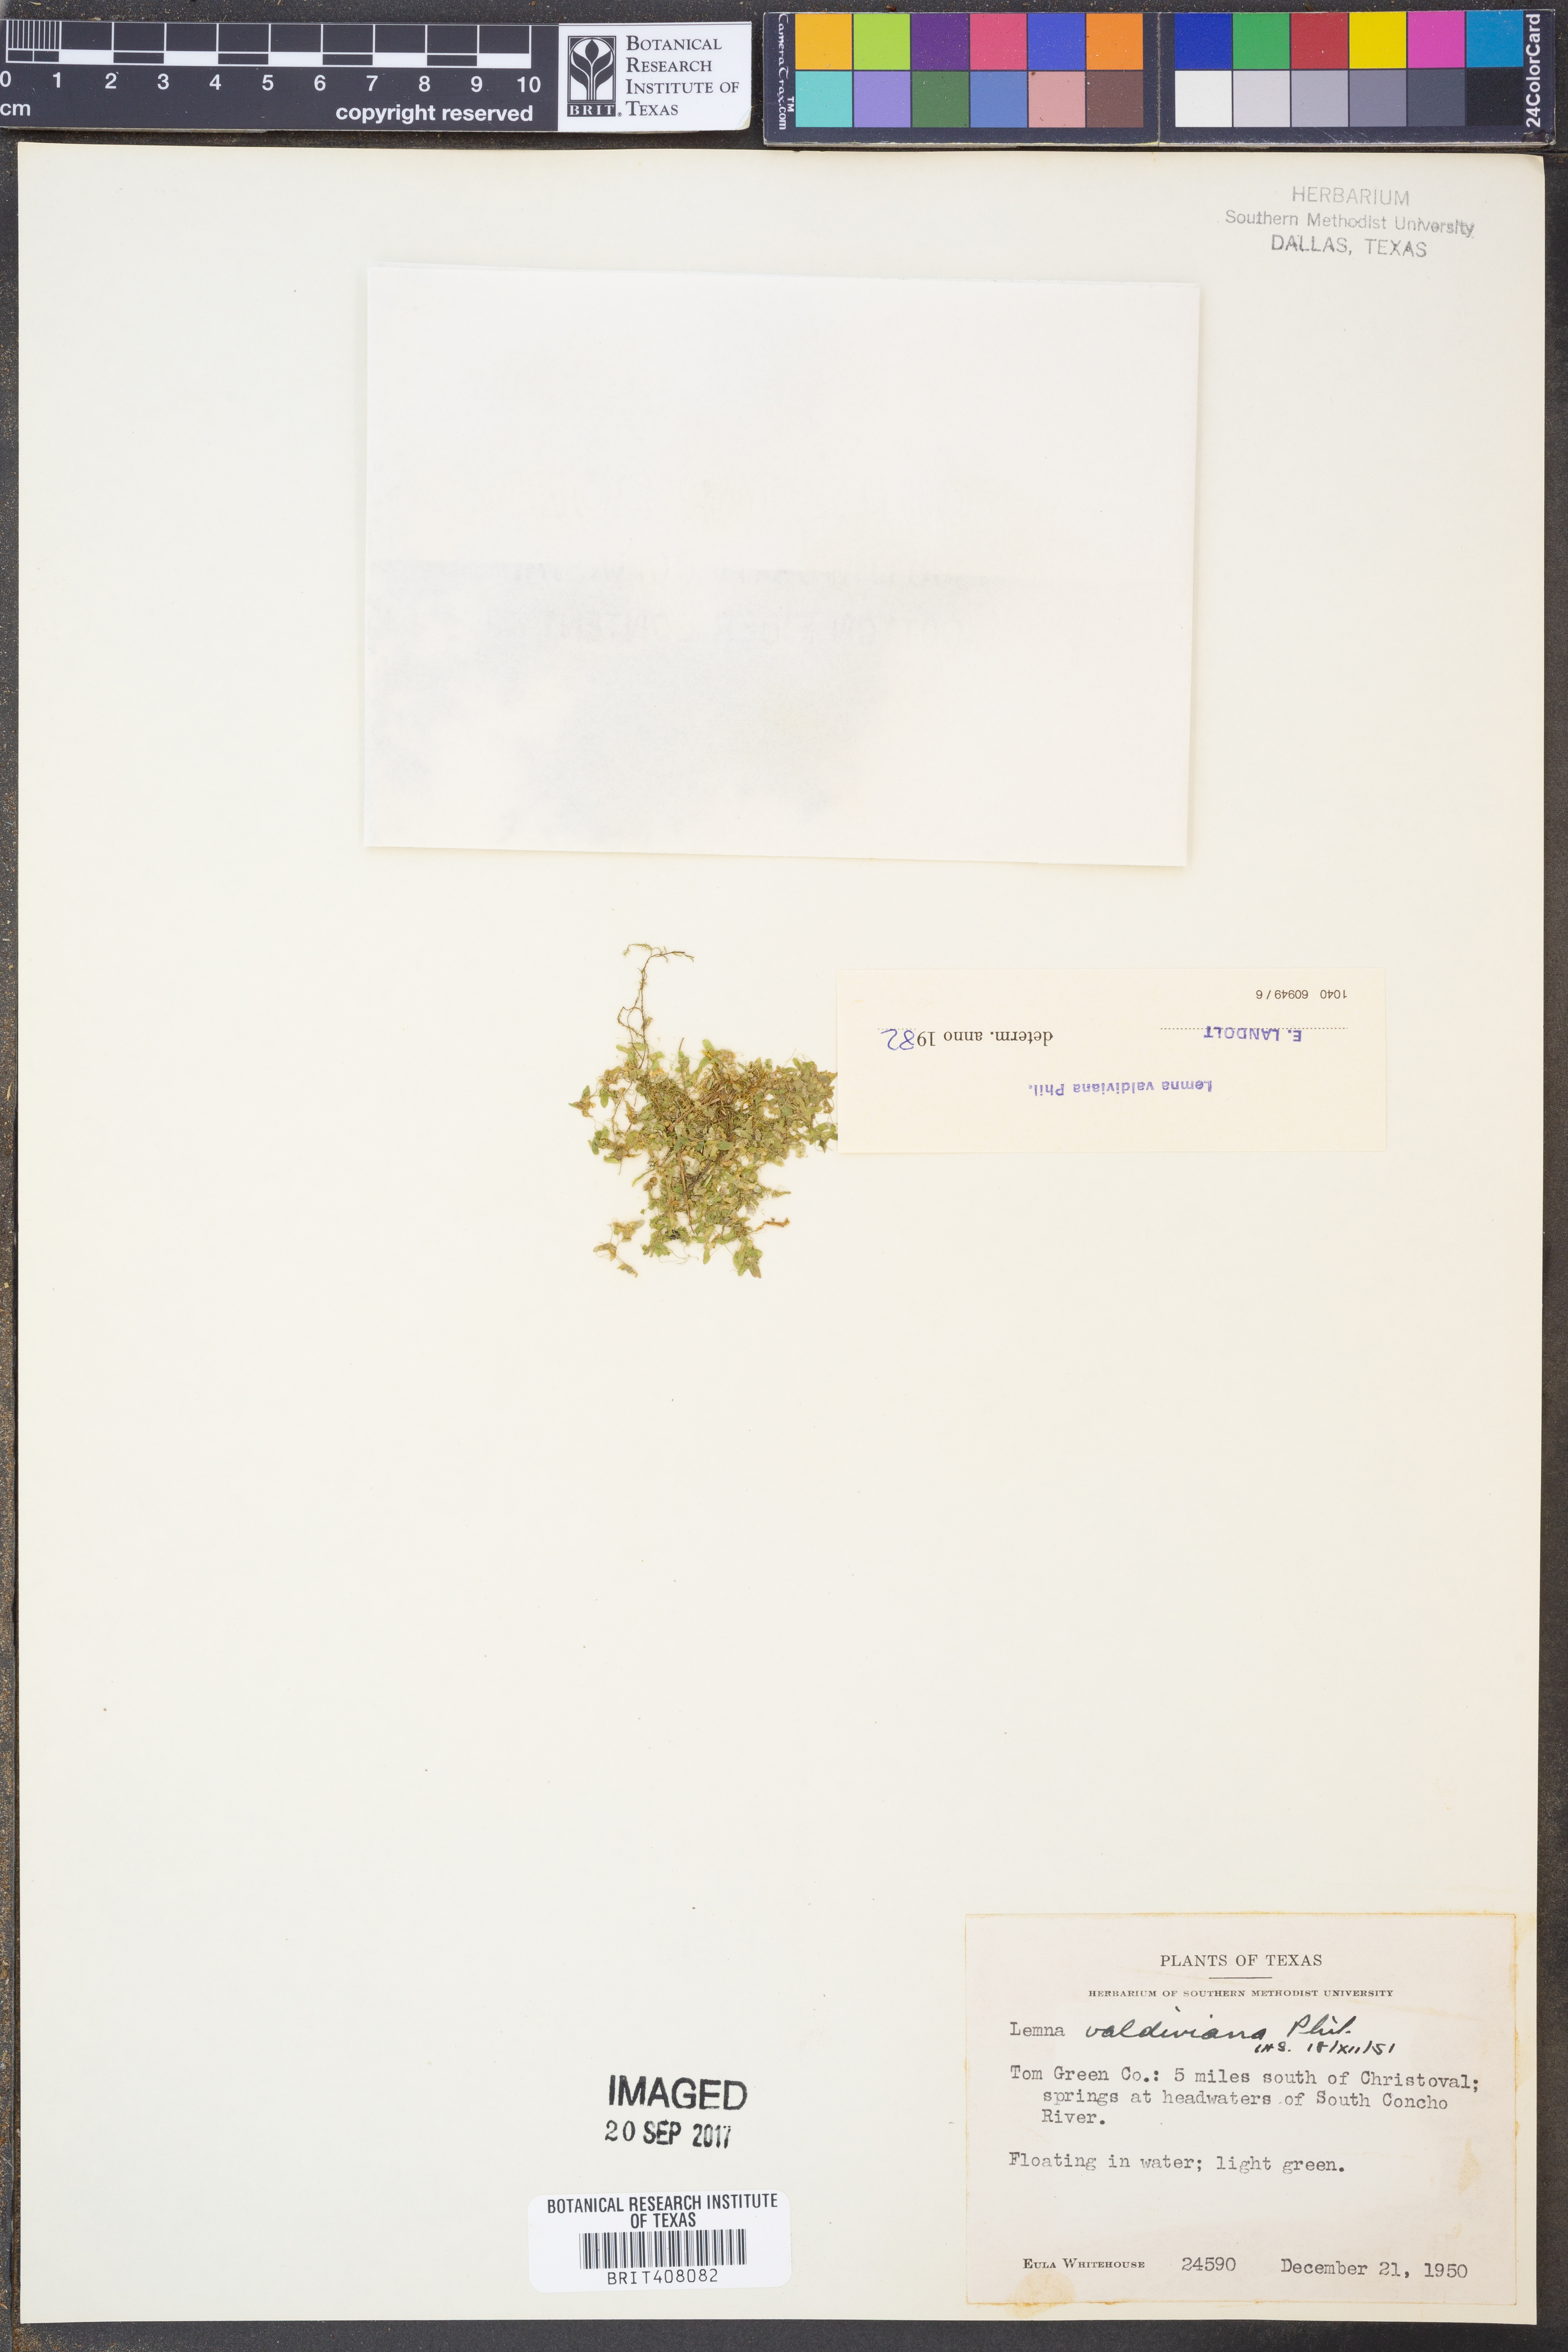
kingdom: Plantae
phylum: Tracheophyta
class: Liliopsida
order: Alismatales
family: Araceae
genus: Lemna
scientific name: Lemna valdiviana
